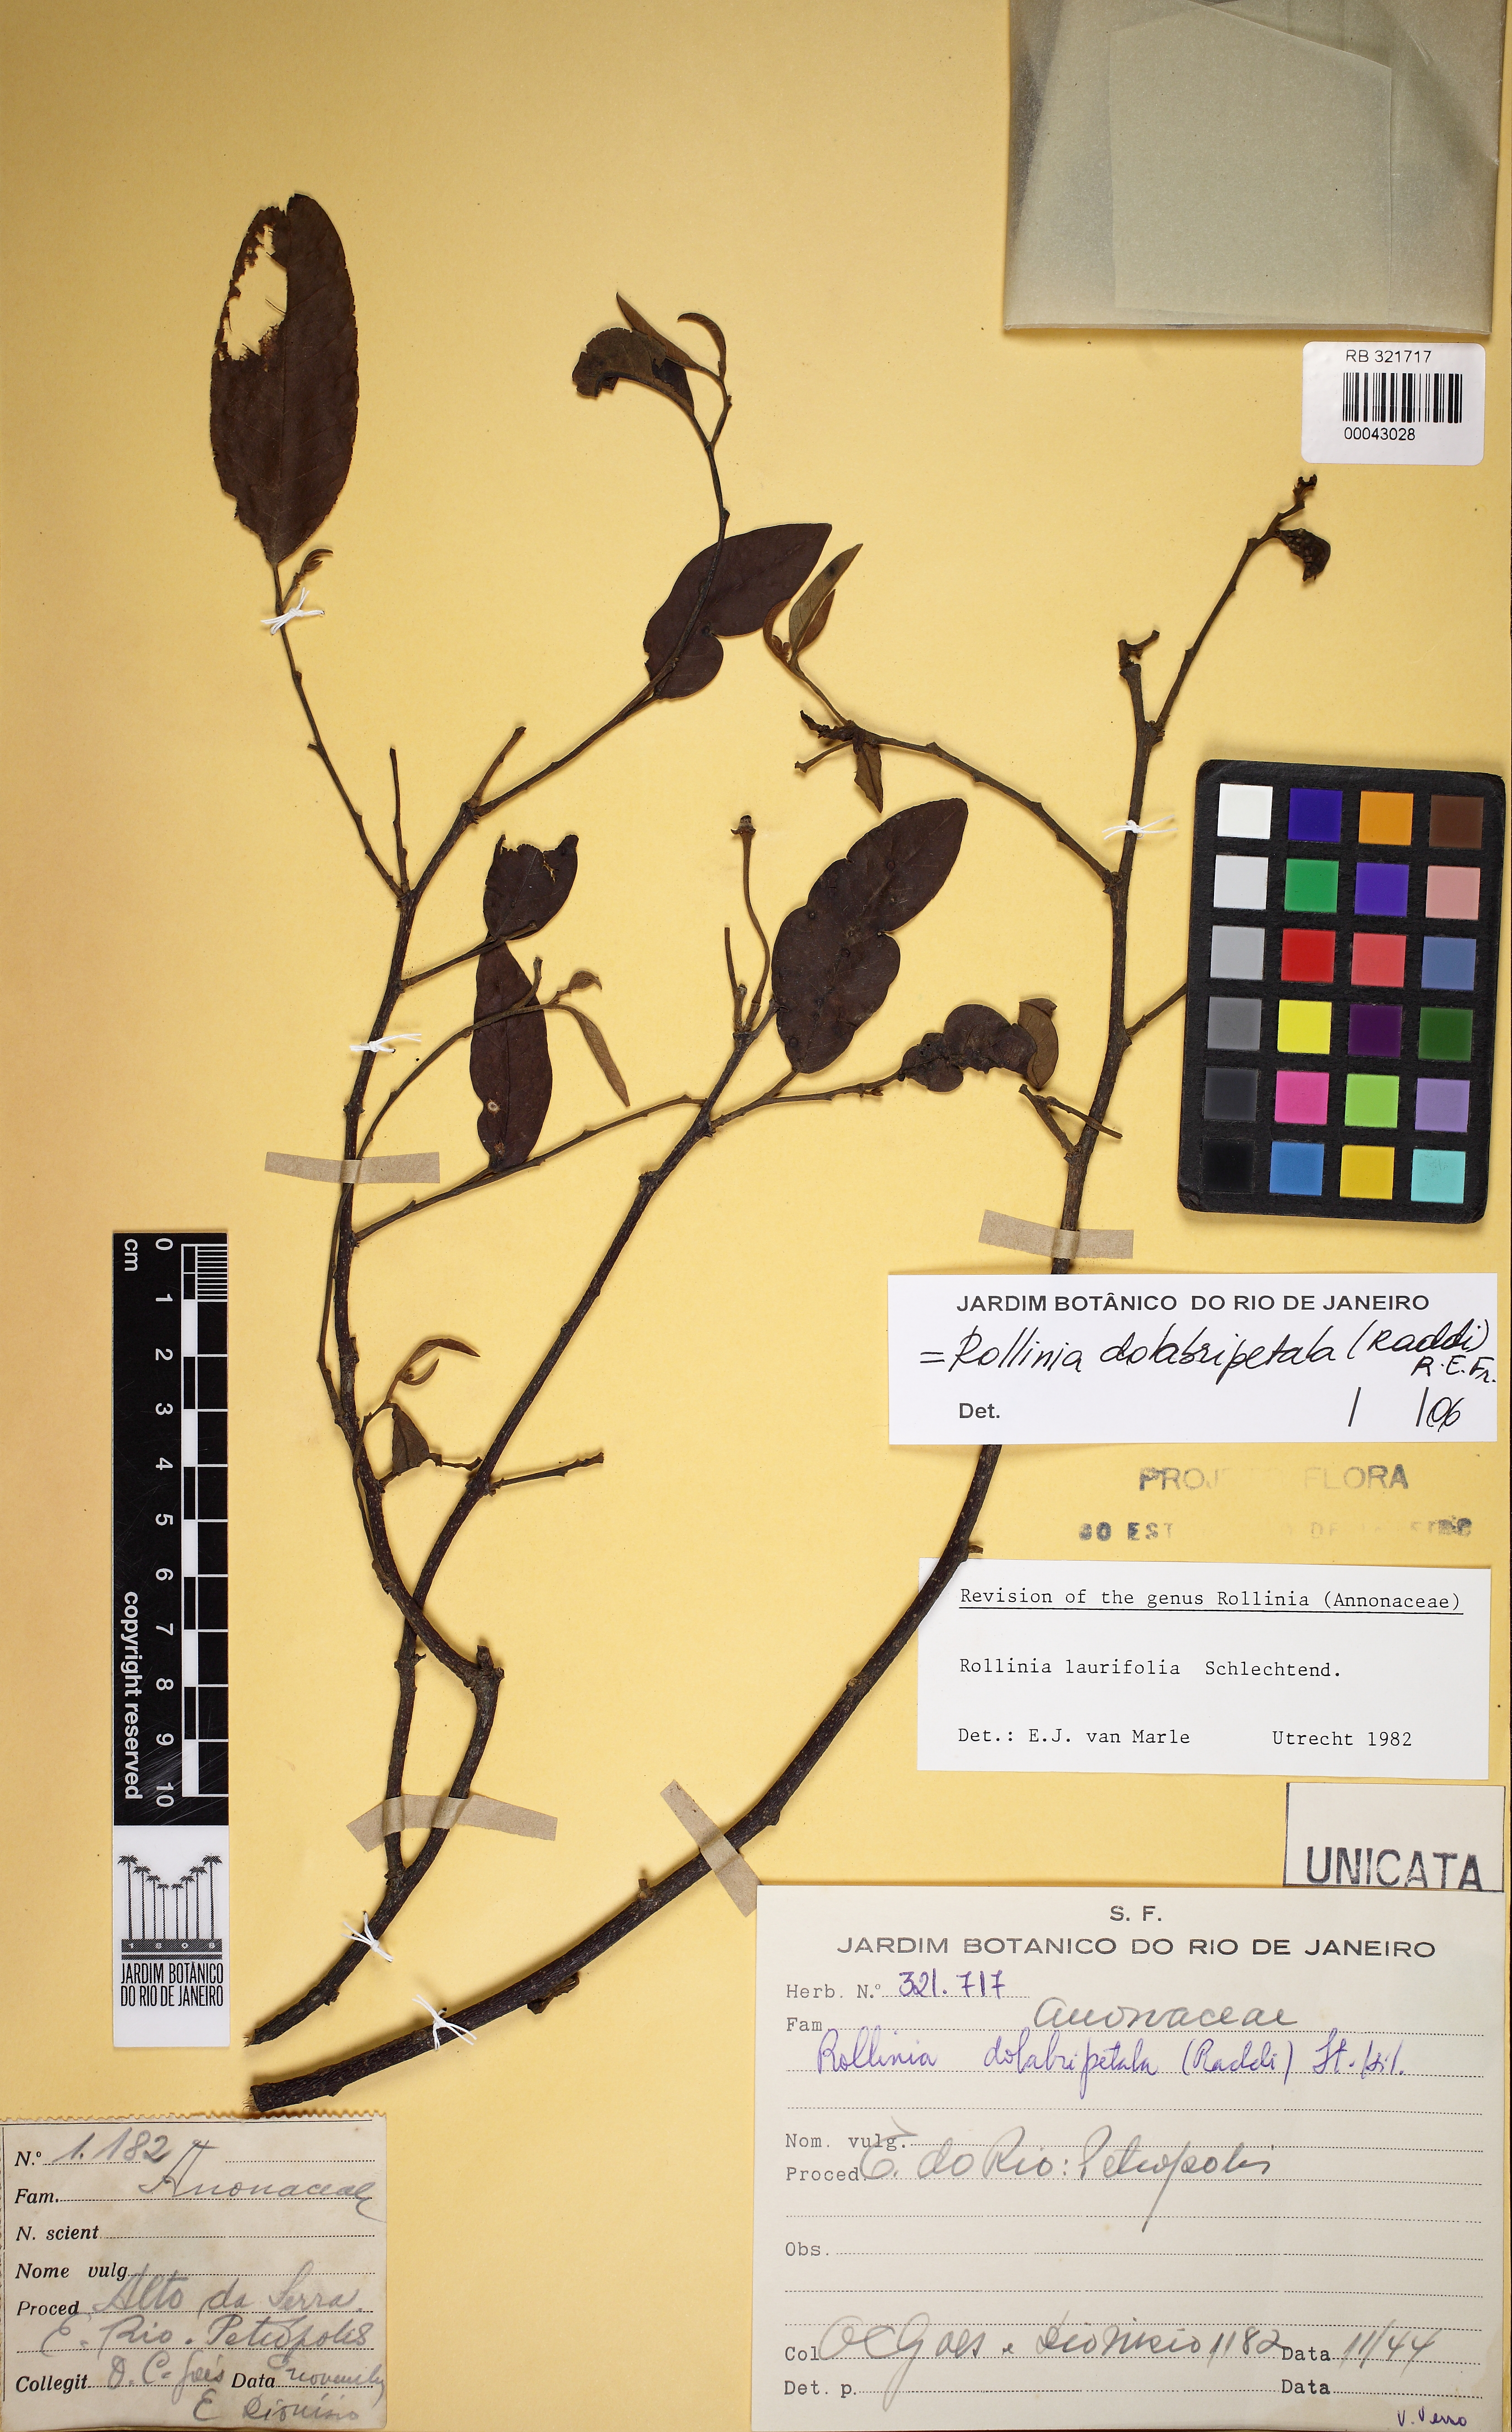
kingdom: Plantae
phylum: Tracheophyta
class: Magnoliopsida
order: Magnoliales
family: Annonaceae
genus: Annona
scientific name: Annona dolabripetala
